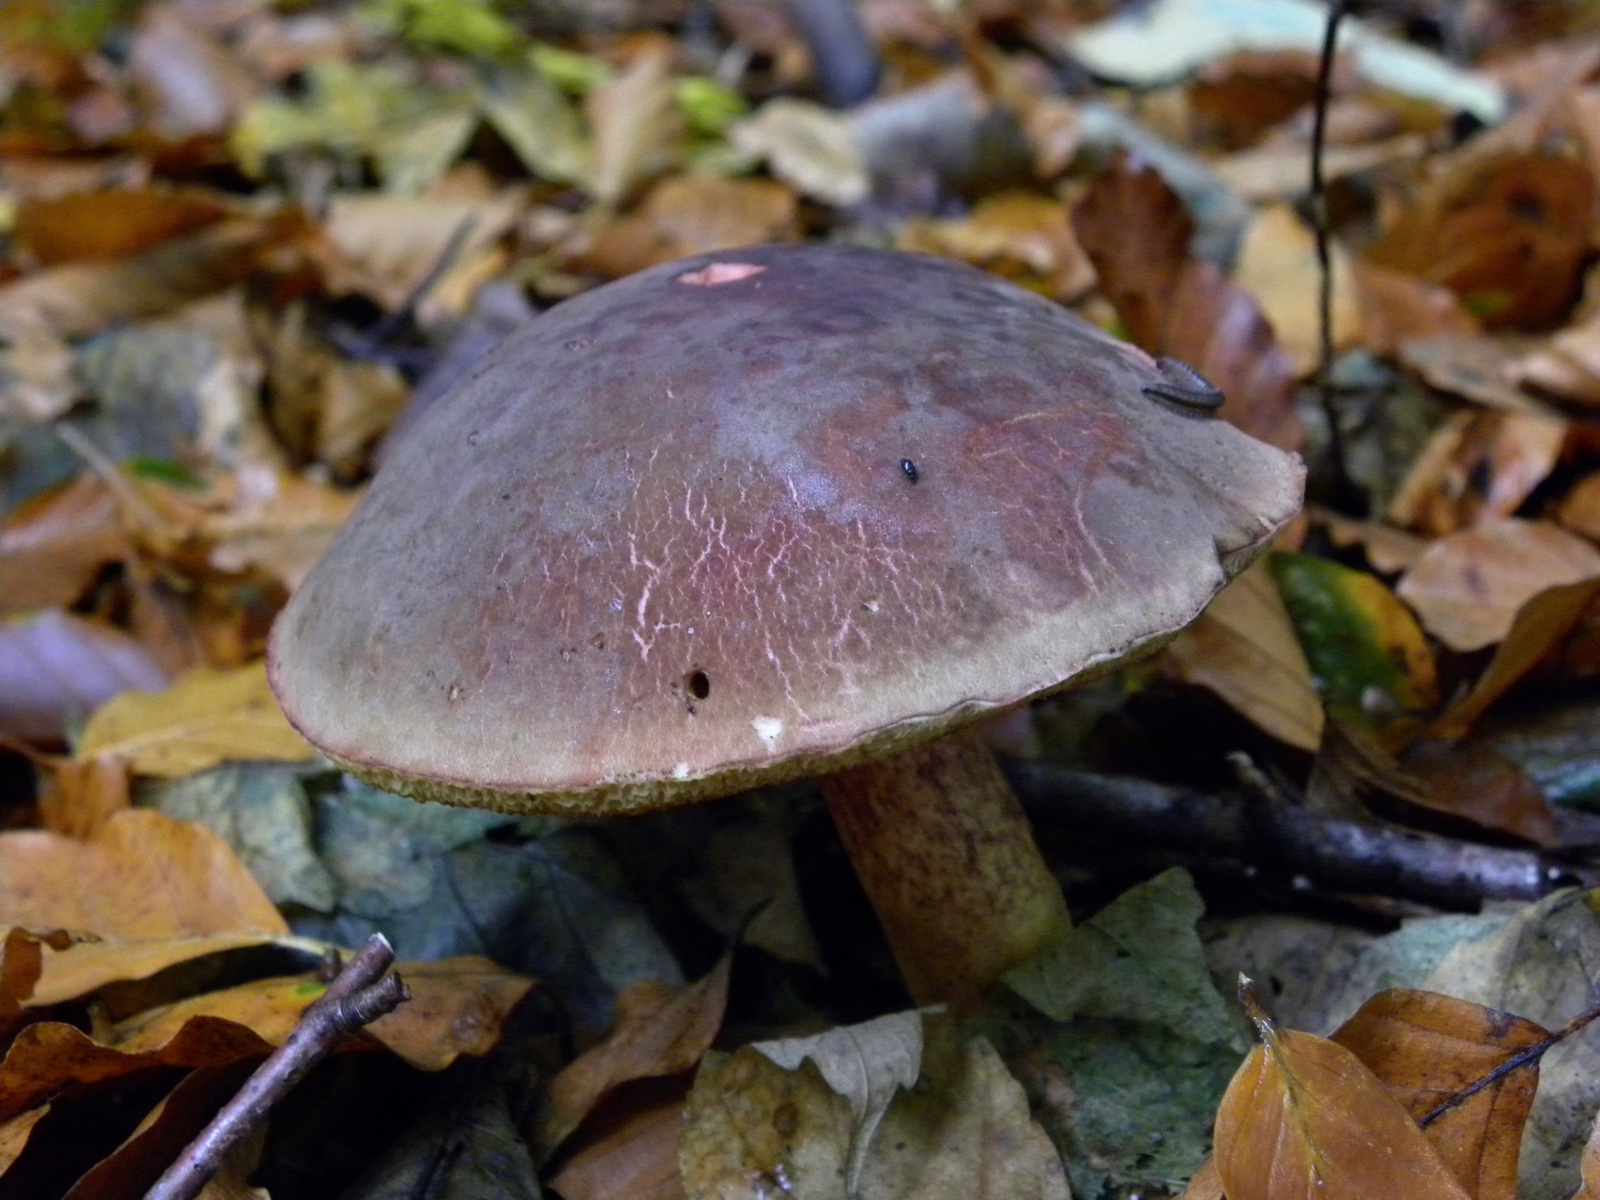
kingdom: Fungi
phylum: Basidiomycota
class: Agaricomycetes
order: Boletales
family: Boletaceae
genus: Xerocomellus
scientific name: Xerocomellus pruinatus
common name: dugget rørhat
